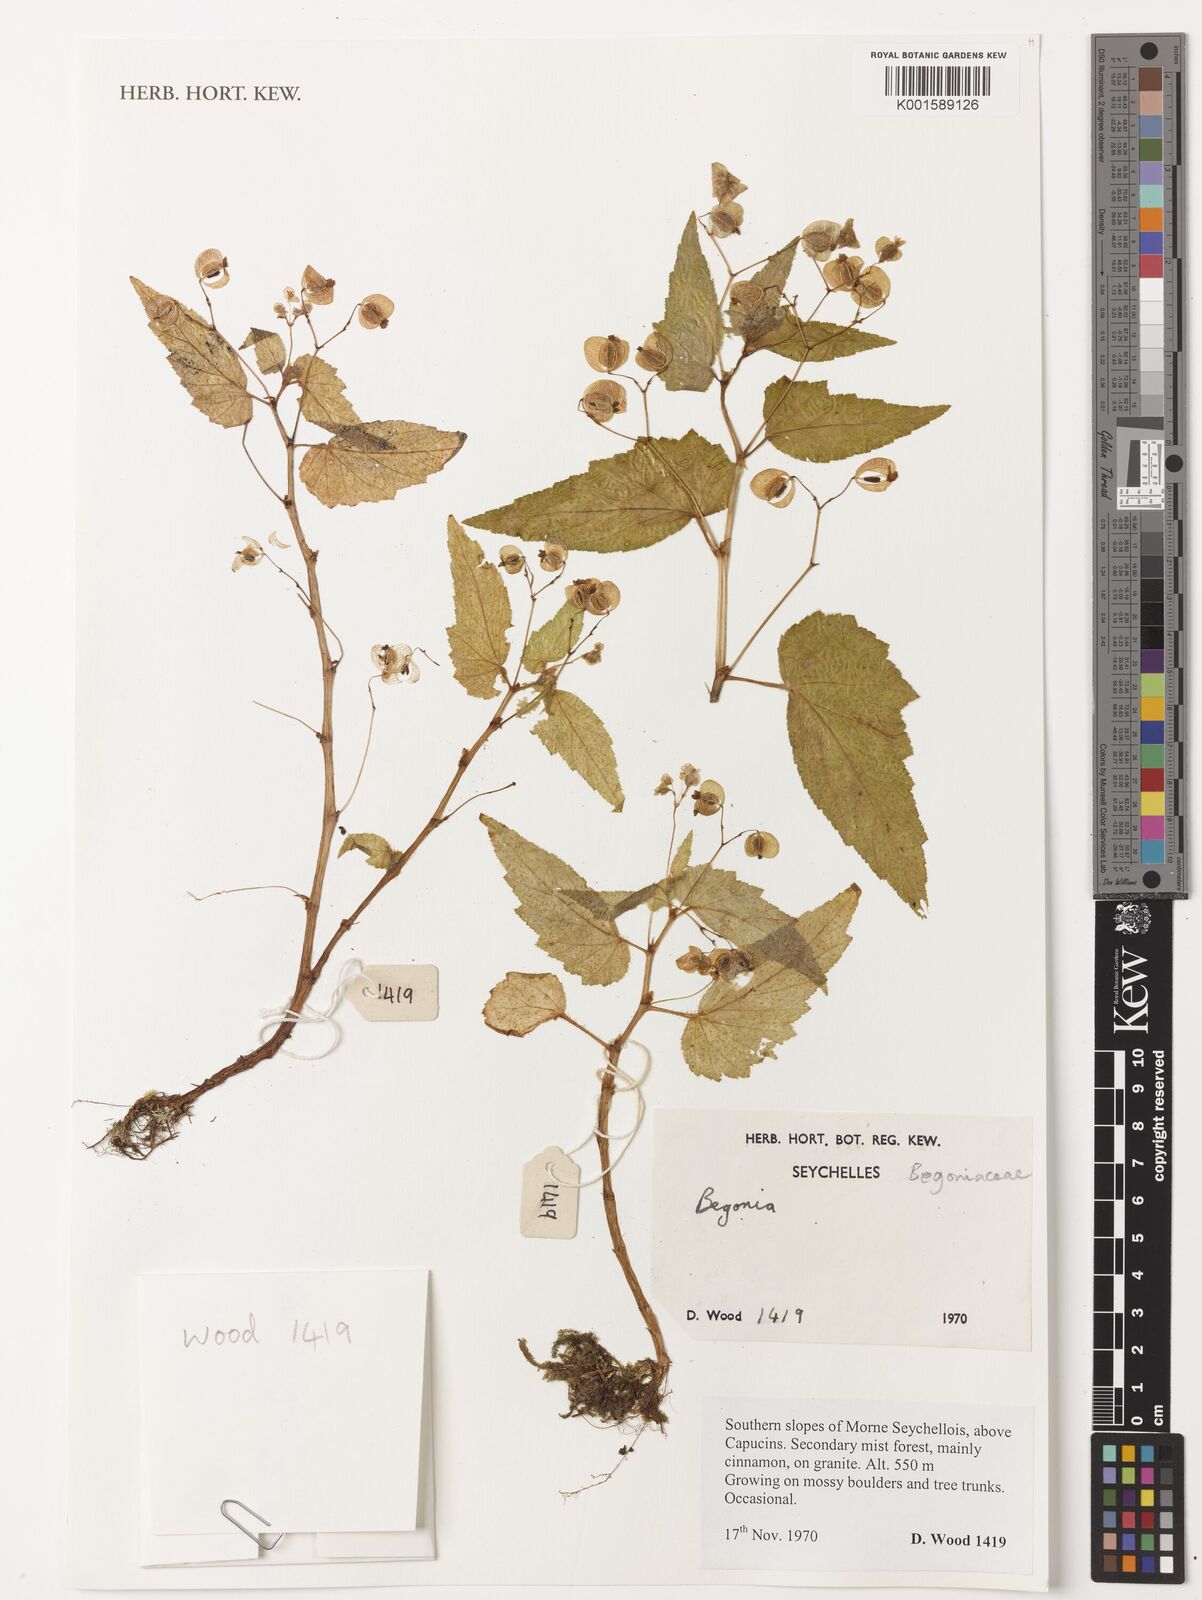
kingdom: Plantae
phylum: Tracheophyta
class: Magnoliopsida
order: Cucurbitales
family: Begoniaceae
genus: Begonia
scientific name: Begonia
